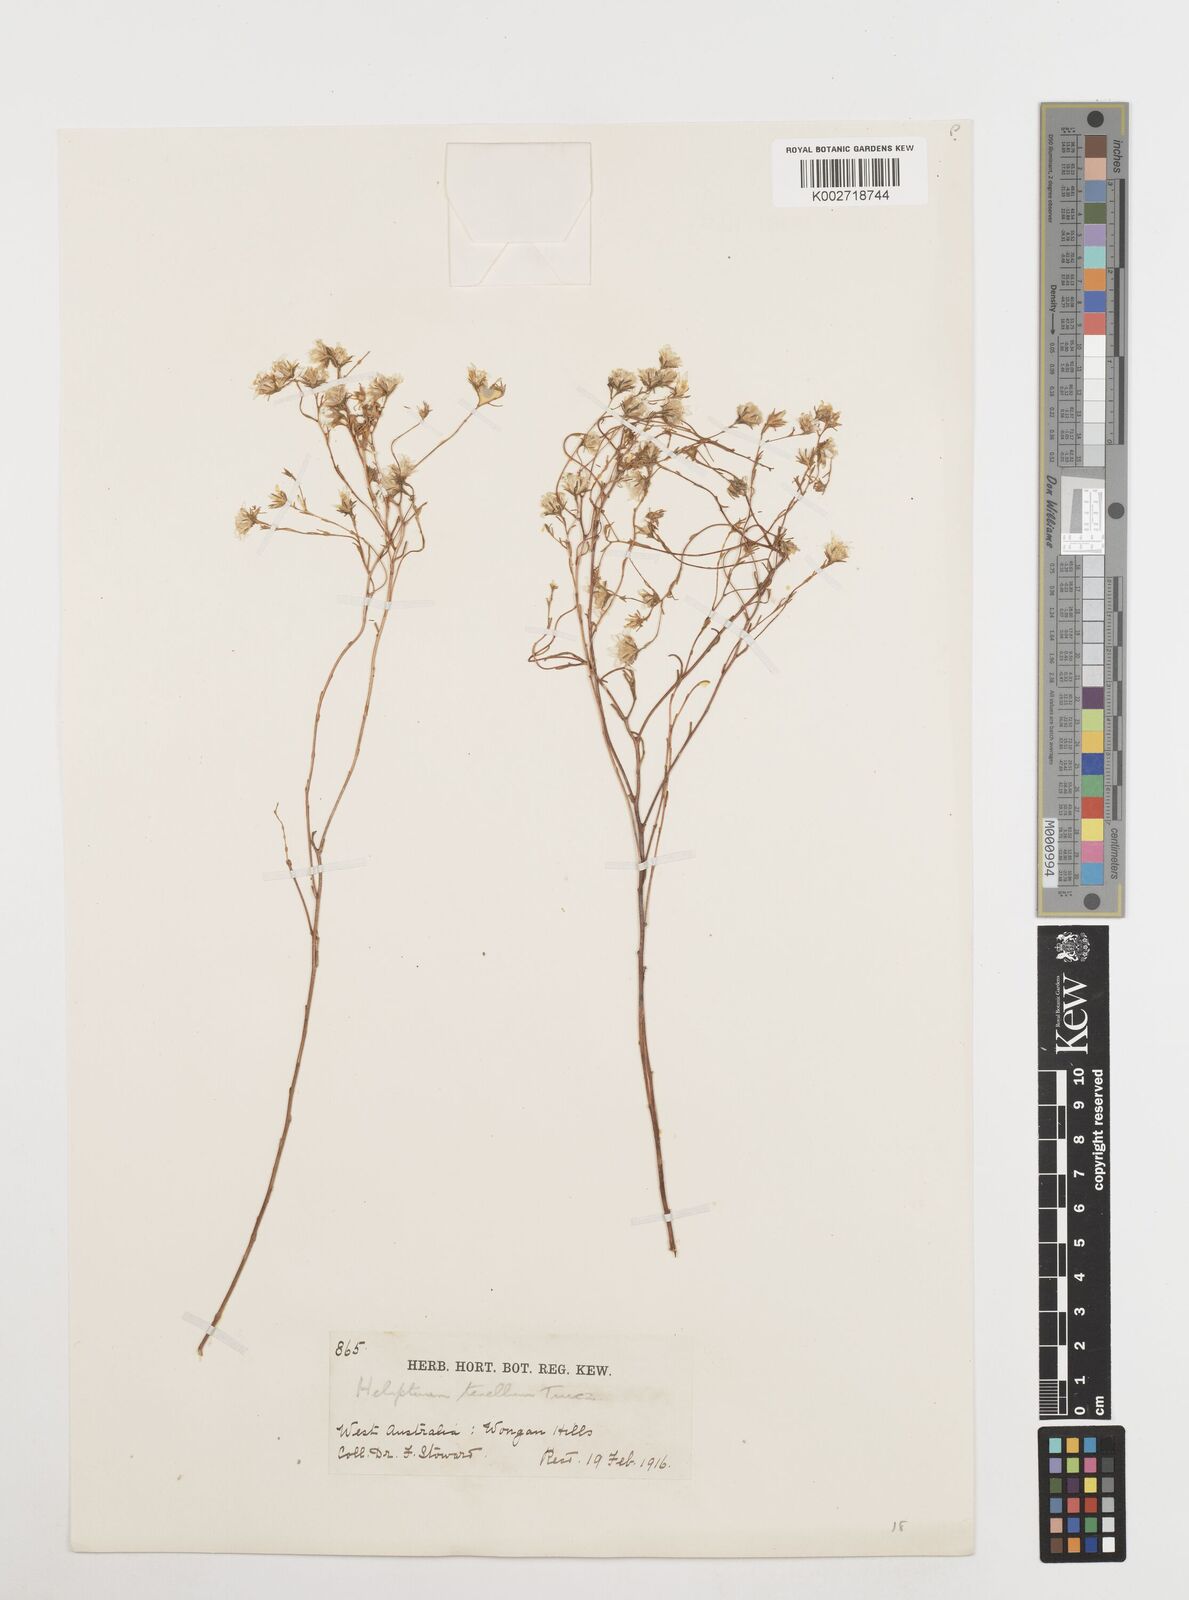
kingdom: Plantae
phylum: Tracheophyta
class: Magnoliopsida
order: Asterales
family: Asteraceae
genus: Erymophyllum
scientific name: Erymophyllum tenellum
